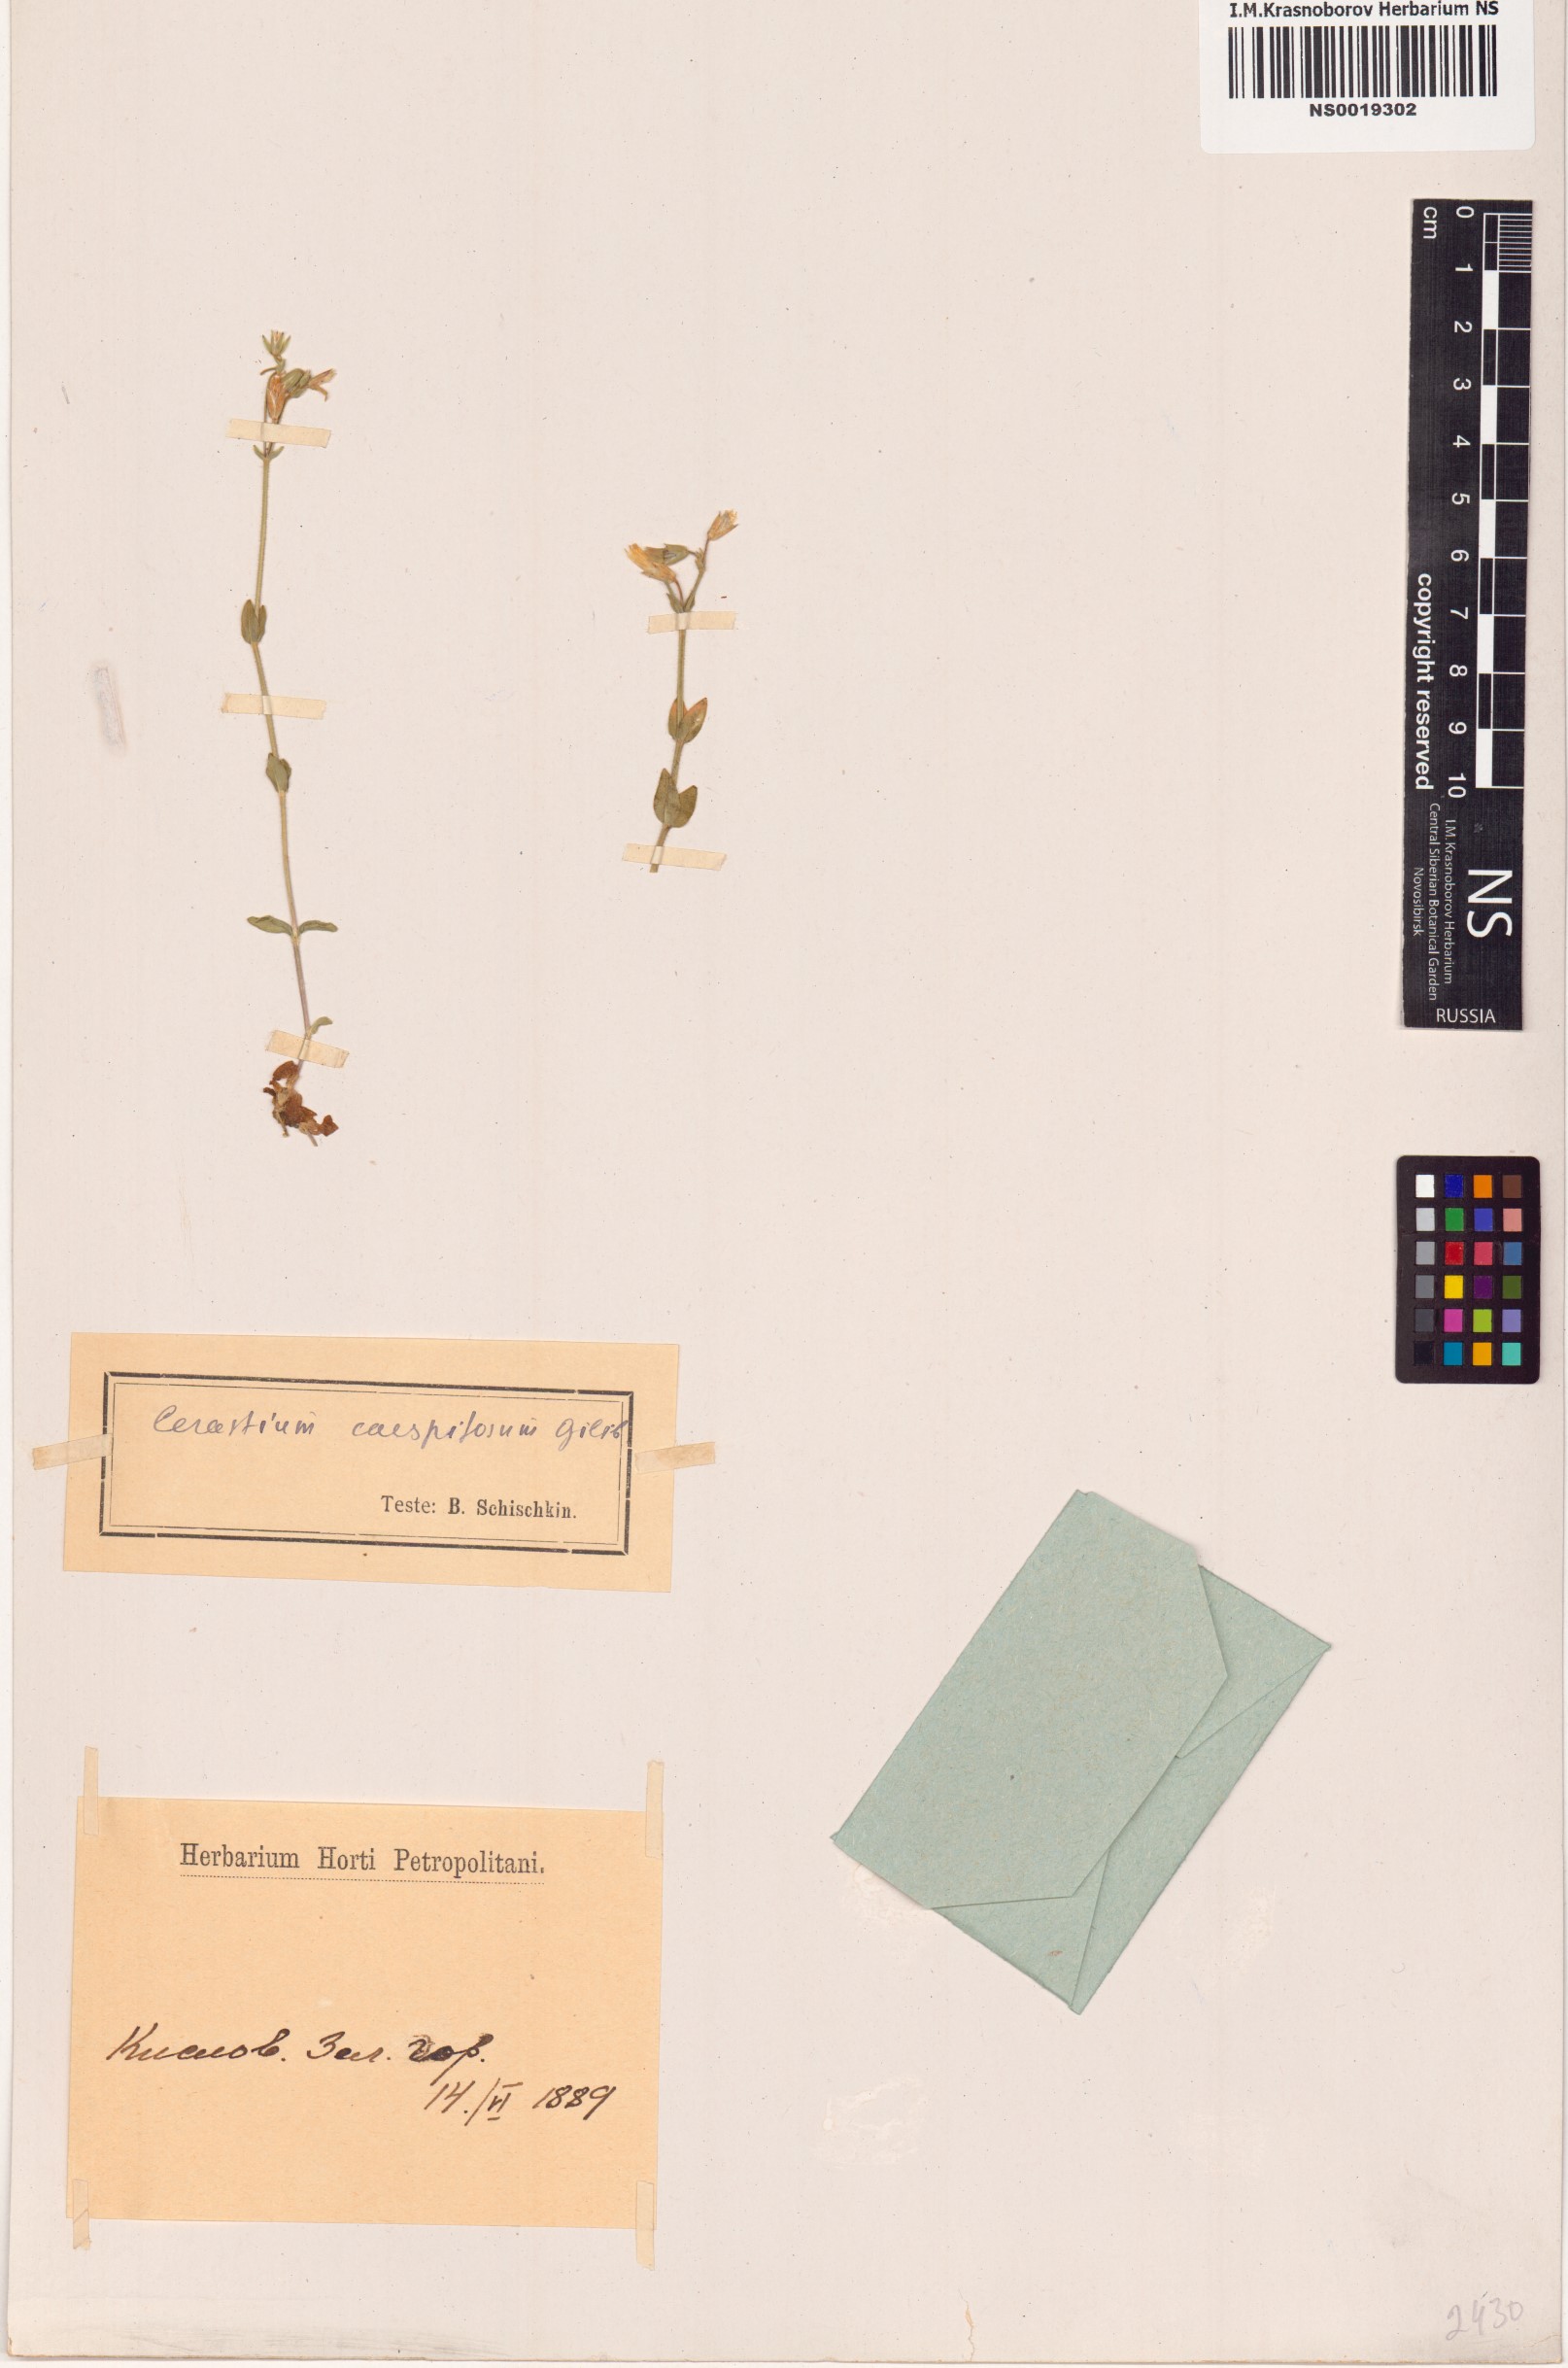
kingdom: Plantae
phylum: Tracheophyta
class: Magnoliopsida
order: Caryophyllales
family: Caryophyllaceae
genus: Cerastium
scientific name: Cerastium
